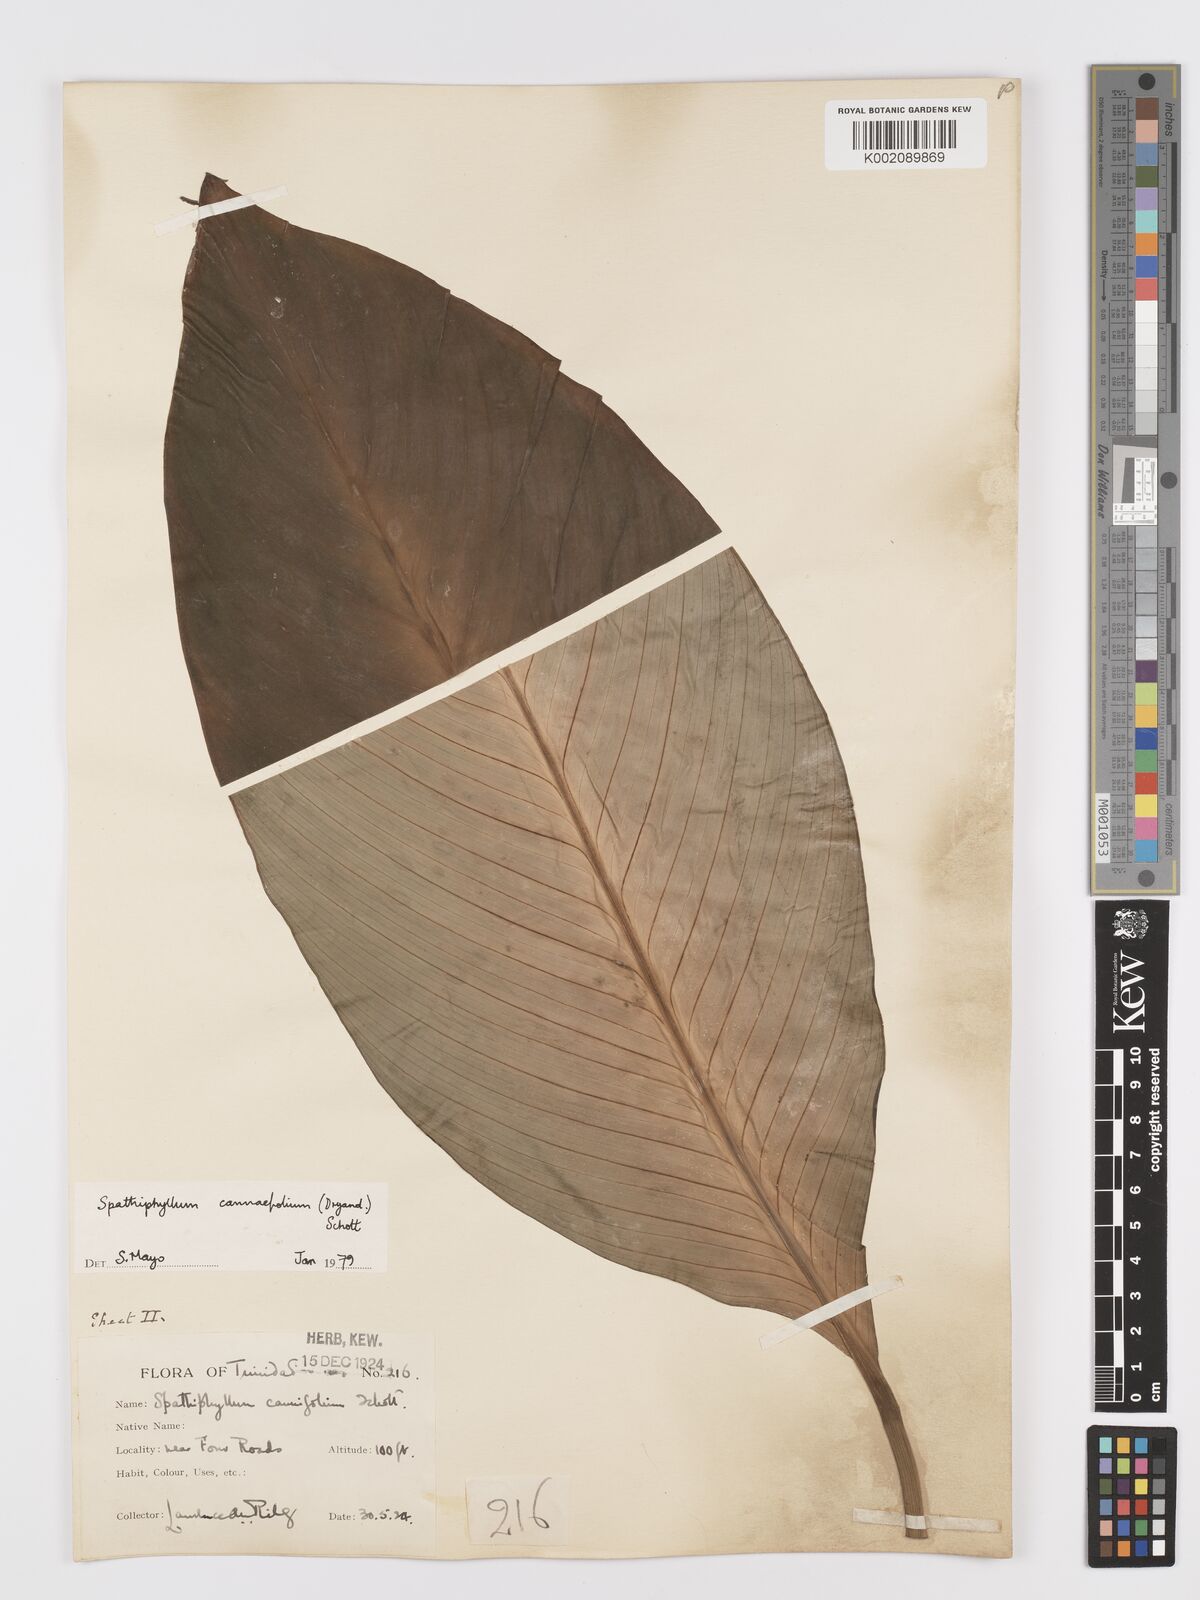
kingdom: Plantae
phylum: Tracheophyta
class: Liliopsida
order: Alismatales
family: Araceae
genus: Spathiphyllum
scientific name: Spathiphyllum cannifolium
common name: Spatheflower
